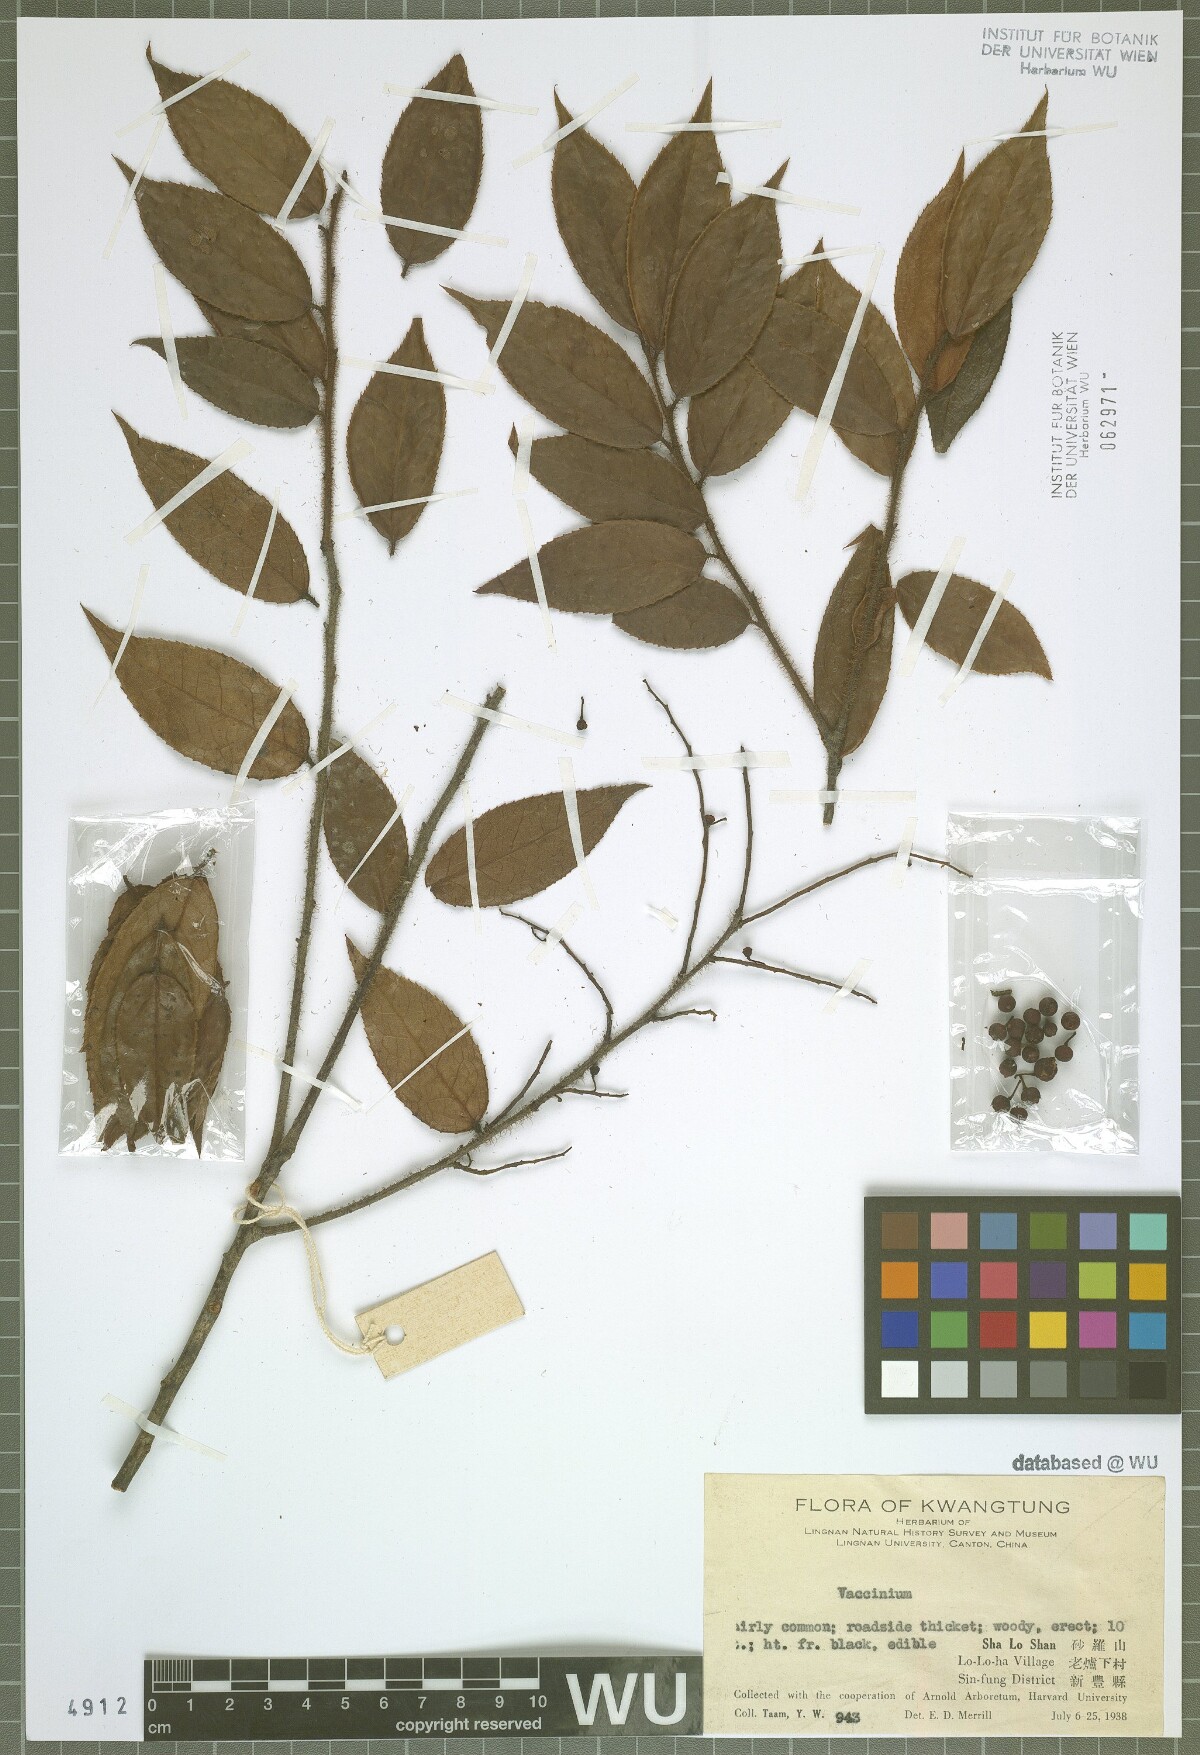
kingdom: Plantae
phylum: Tracheophyta
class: Magnoliopsida
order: Ericales
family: Ericaceae
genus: Vaccinium
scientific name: Vaccinium
